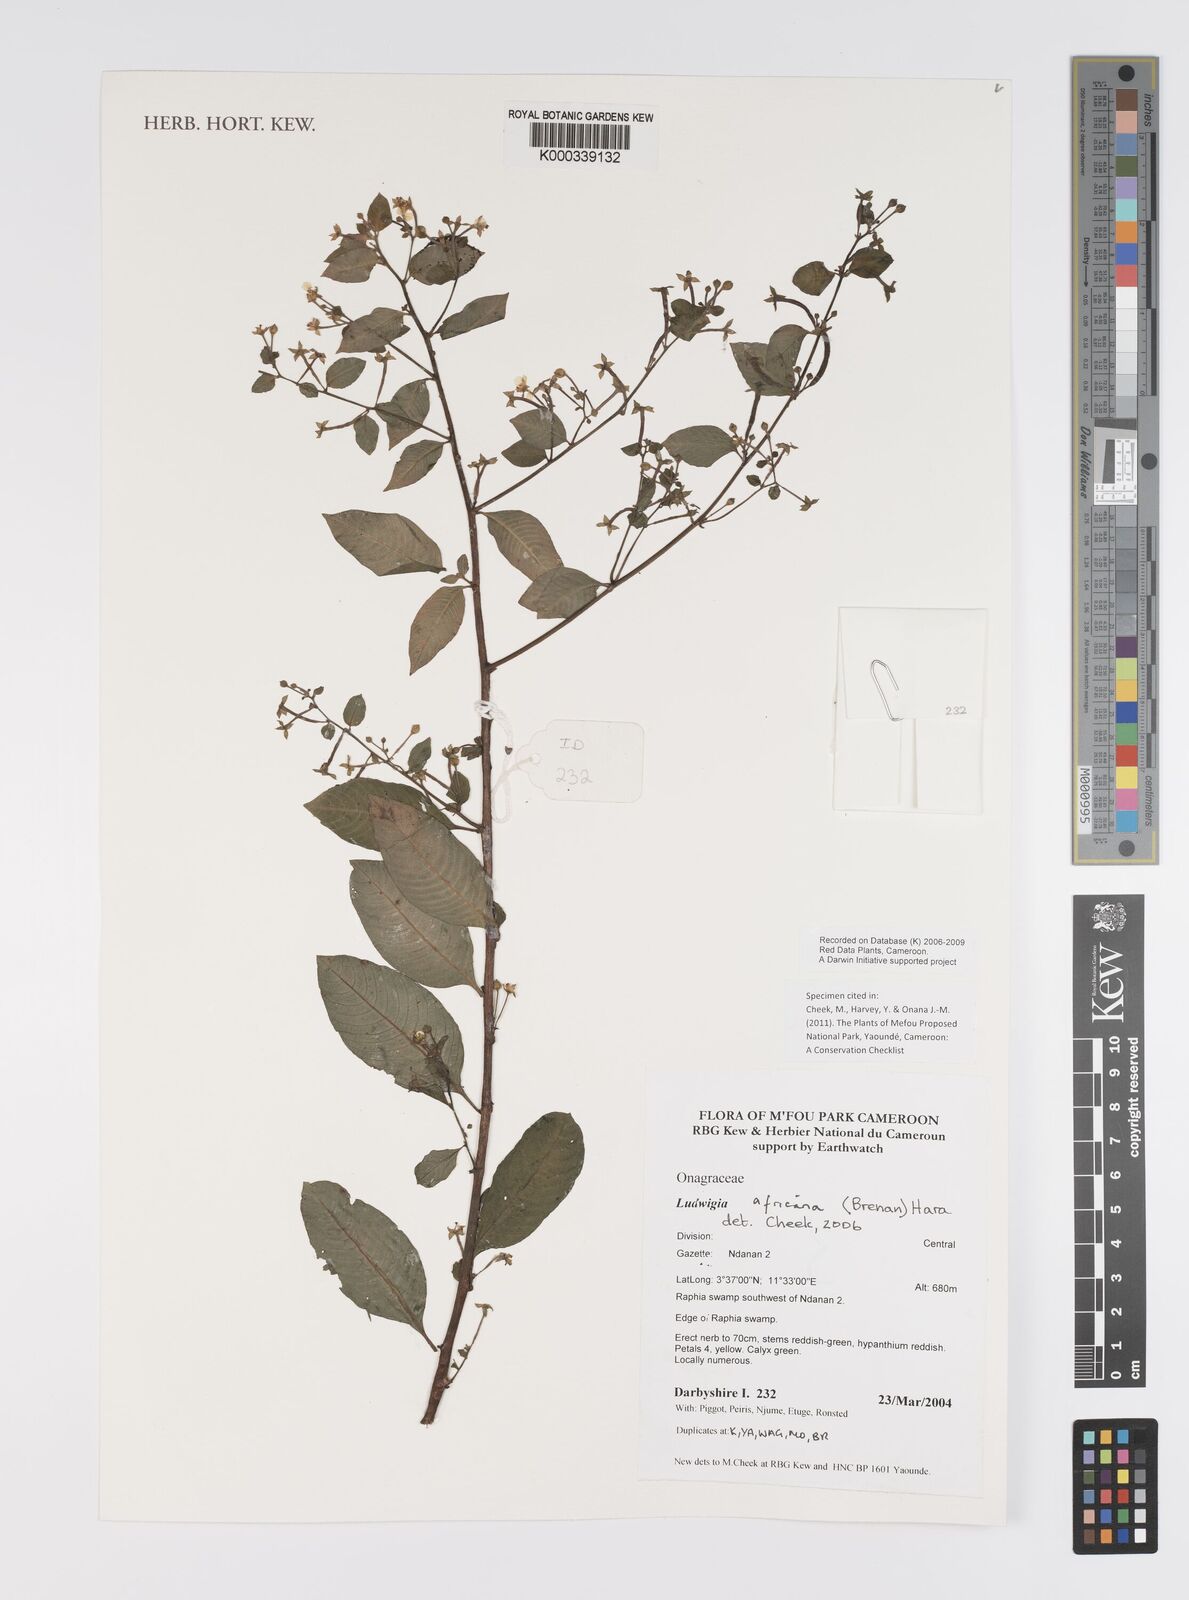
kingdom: Plantae
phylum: Tracheophyta
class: Magnoliopsida
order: Myrtales
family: Onagraceae
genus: Ludwigia
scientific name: Ludwigia africana
